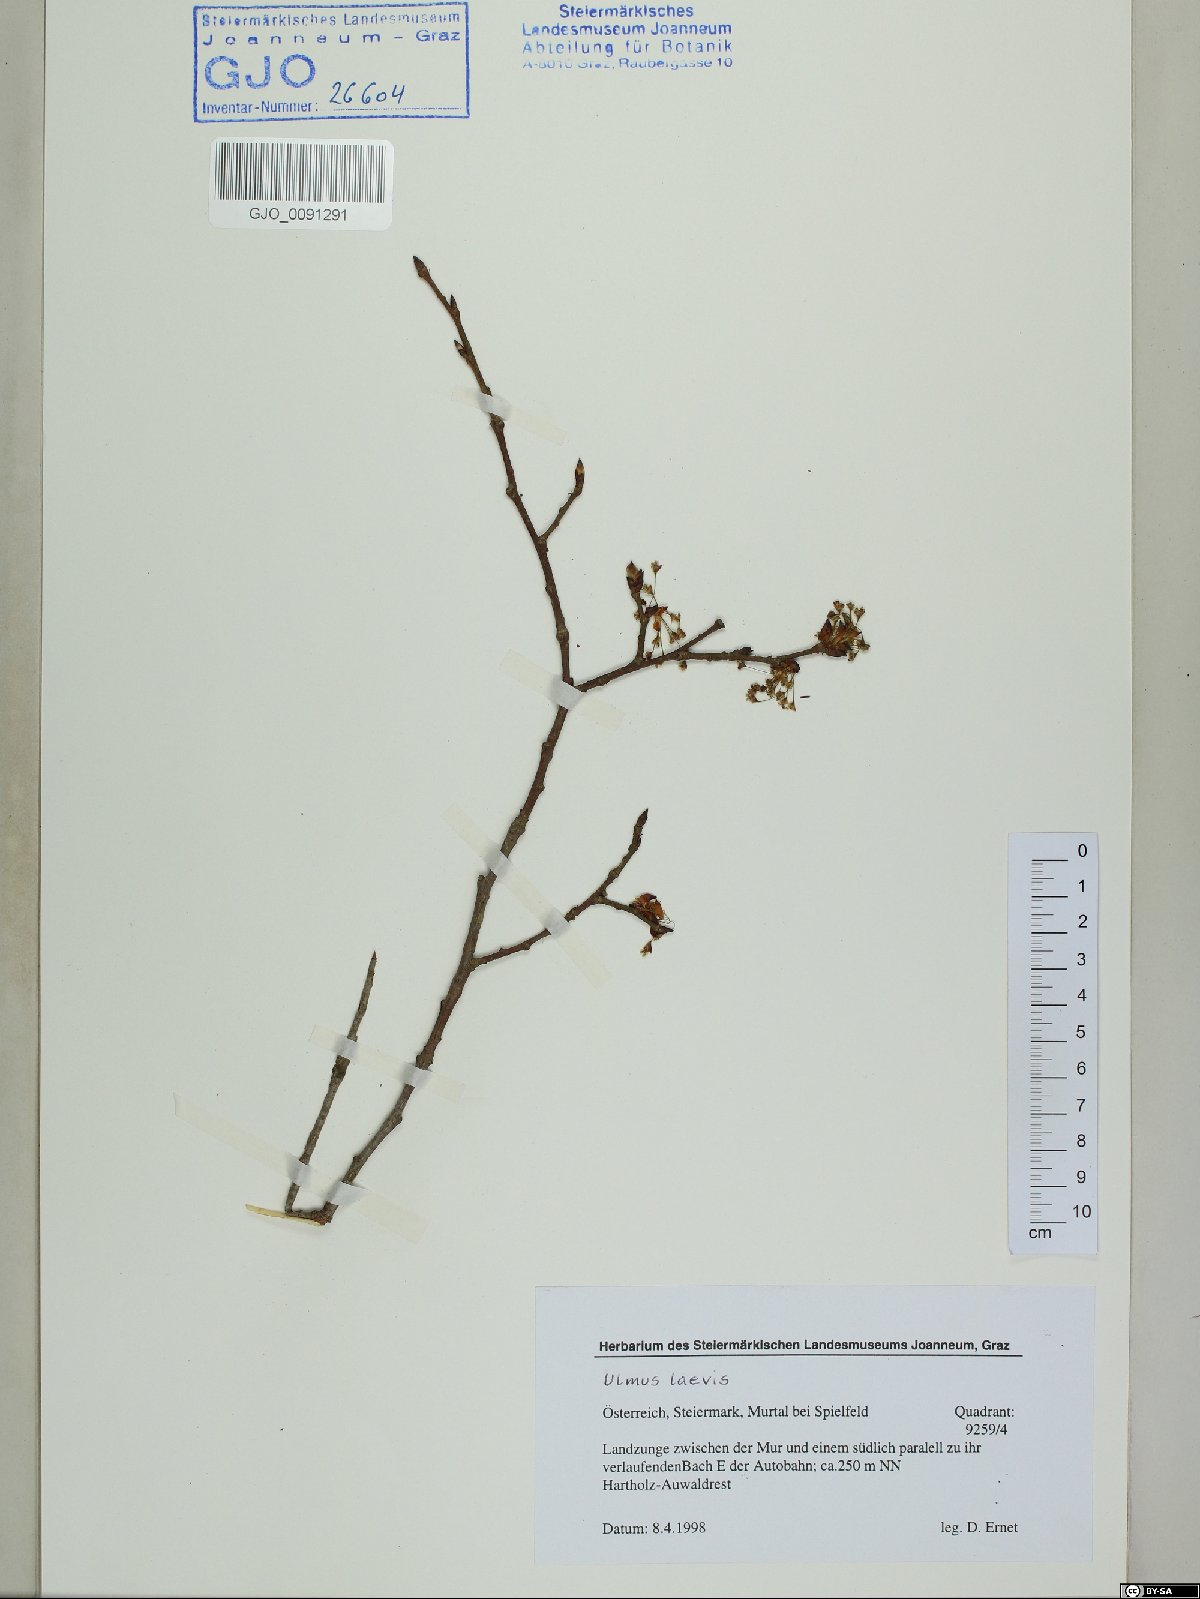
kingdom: Plantae
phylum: Tracheophyta
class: Magnoliopsida
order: Rosales
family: Ulmaceae
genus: Ulmus
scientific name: Ulmus laevis
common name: European white-elm
